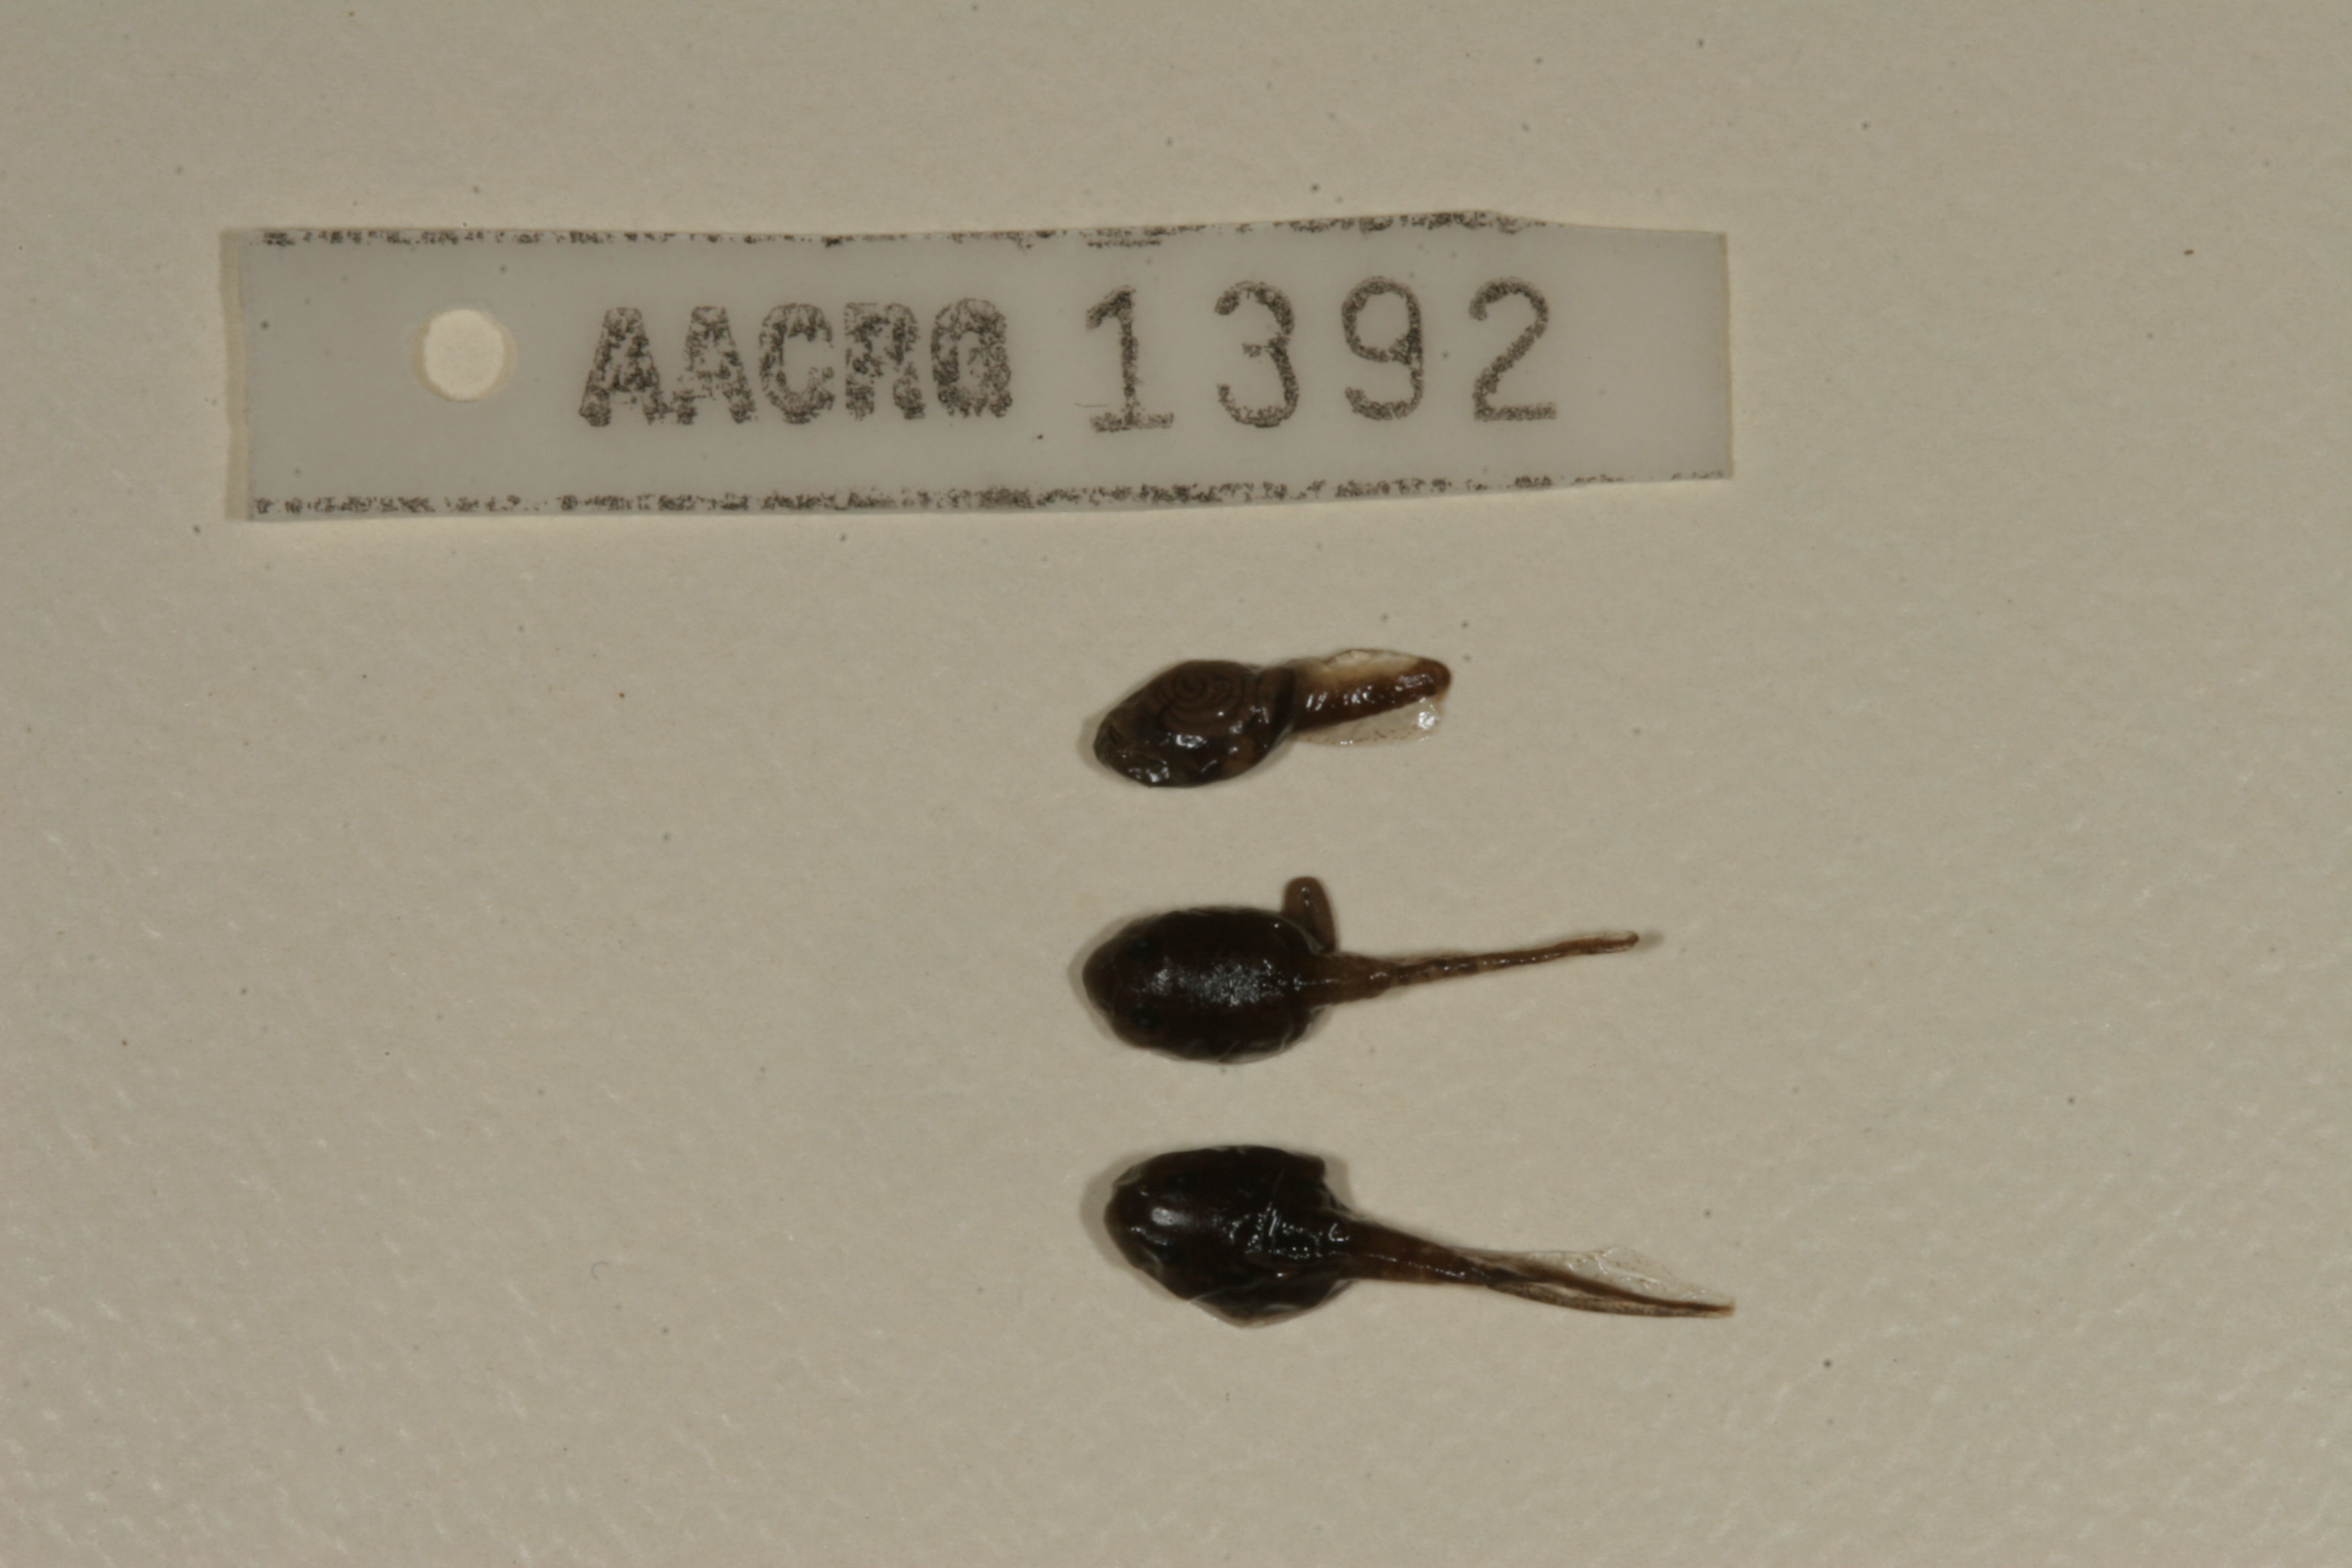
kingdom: Animalia
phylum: Chordata
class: Amphibia
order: Anura
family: Bufonidae
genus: Sclerophrys
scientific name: Sclerophrys gutturalis
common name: African common toad
